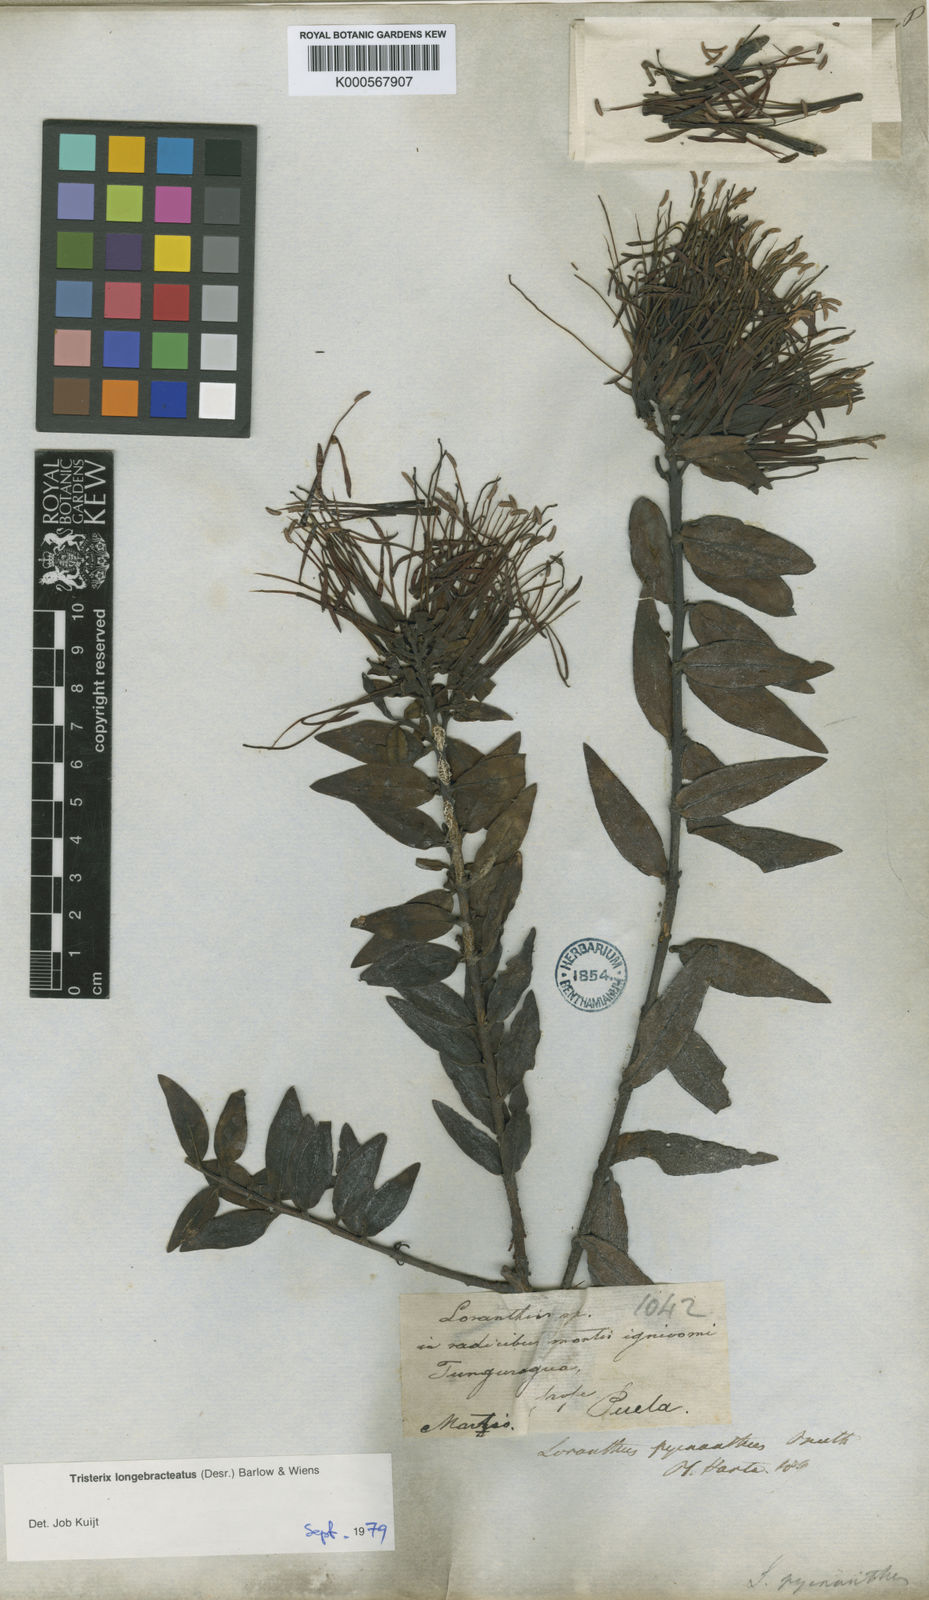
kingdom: Plantae
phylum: Tracheophyta
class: Magnoliopsida
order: Santalales
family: Loranthaceae
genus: Tristerix
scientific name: Tristerix
